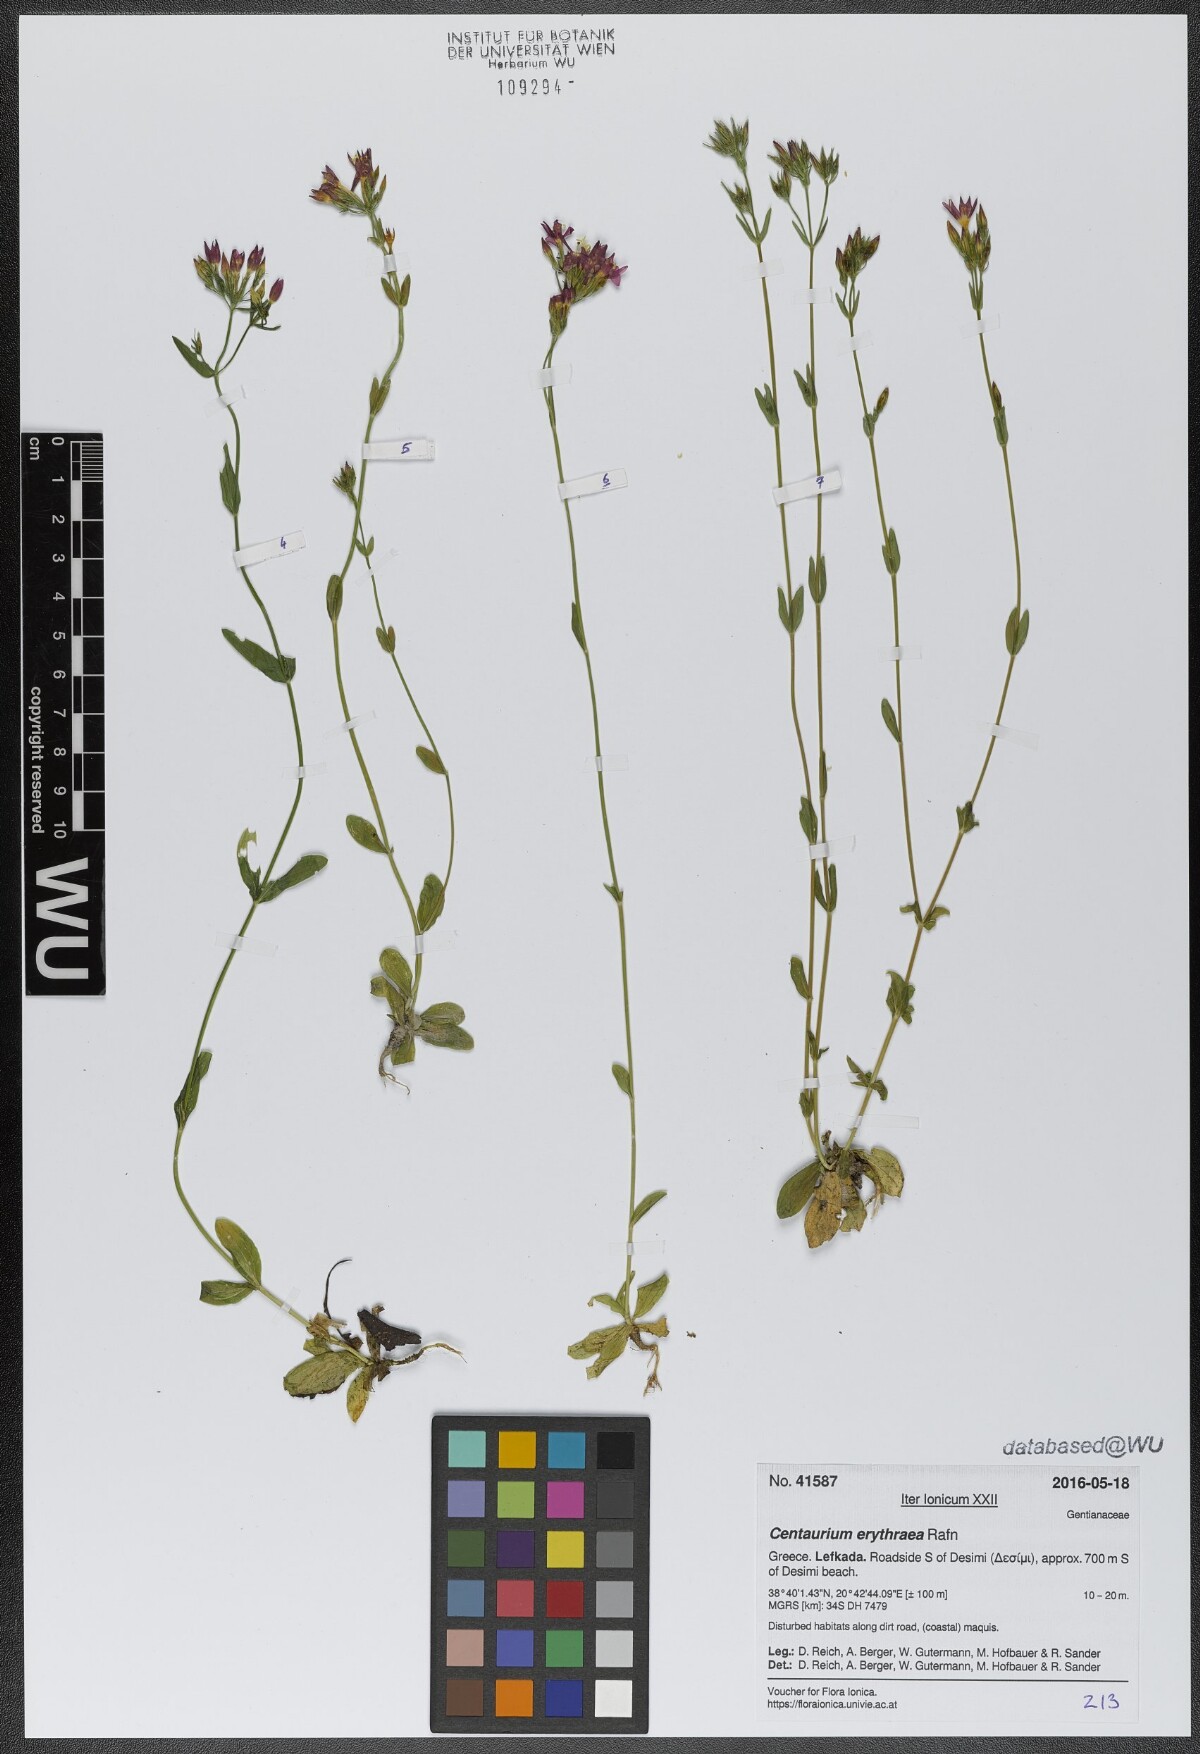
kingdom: Plantae
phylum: Tracheophyta
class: Magnoliopsida
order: Gentianales
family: Gentianaceae
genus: Centaurium
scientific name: Centaurium erythraea
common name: Common centaury
